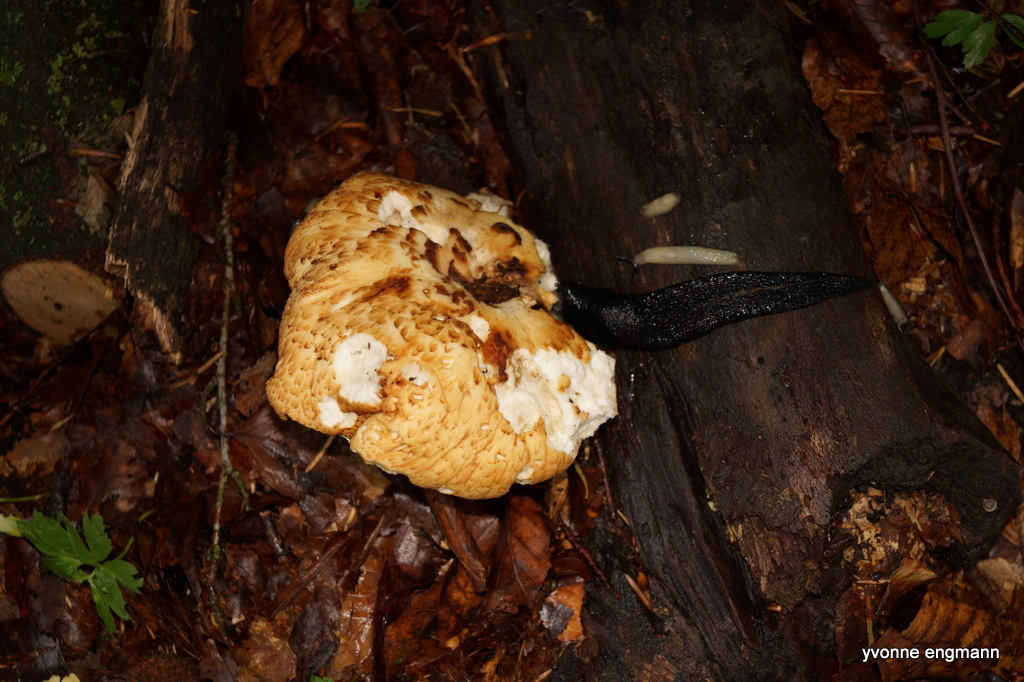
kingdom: Fungi
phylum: Basidiomycota
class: Agaricomycetes
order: Polyporales
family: Polyporaceae
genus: Cerioporus
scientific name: Cerioporus squamosus
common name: skællet stilkporesvamp
